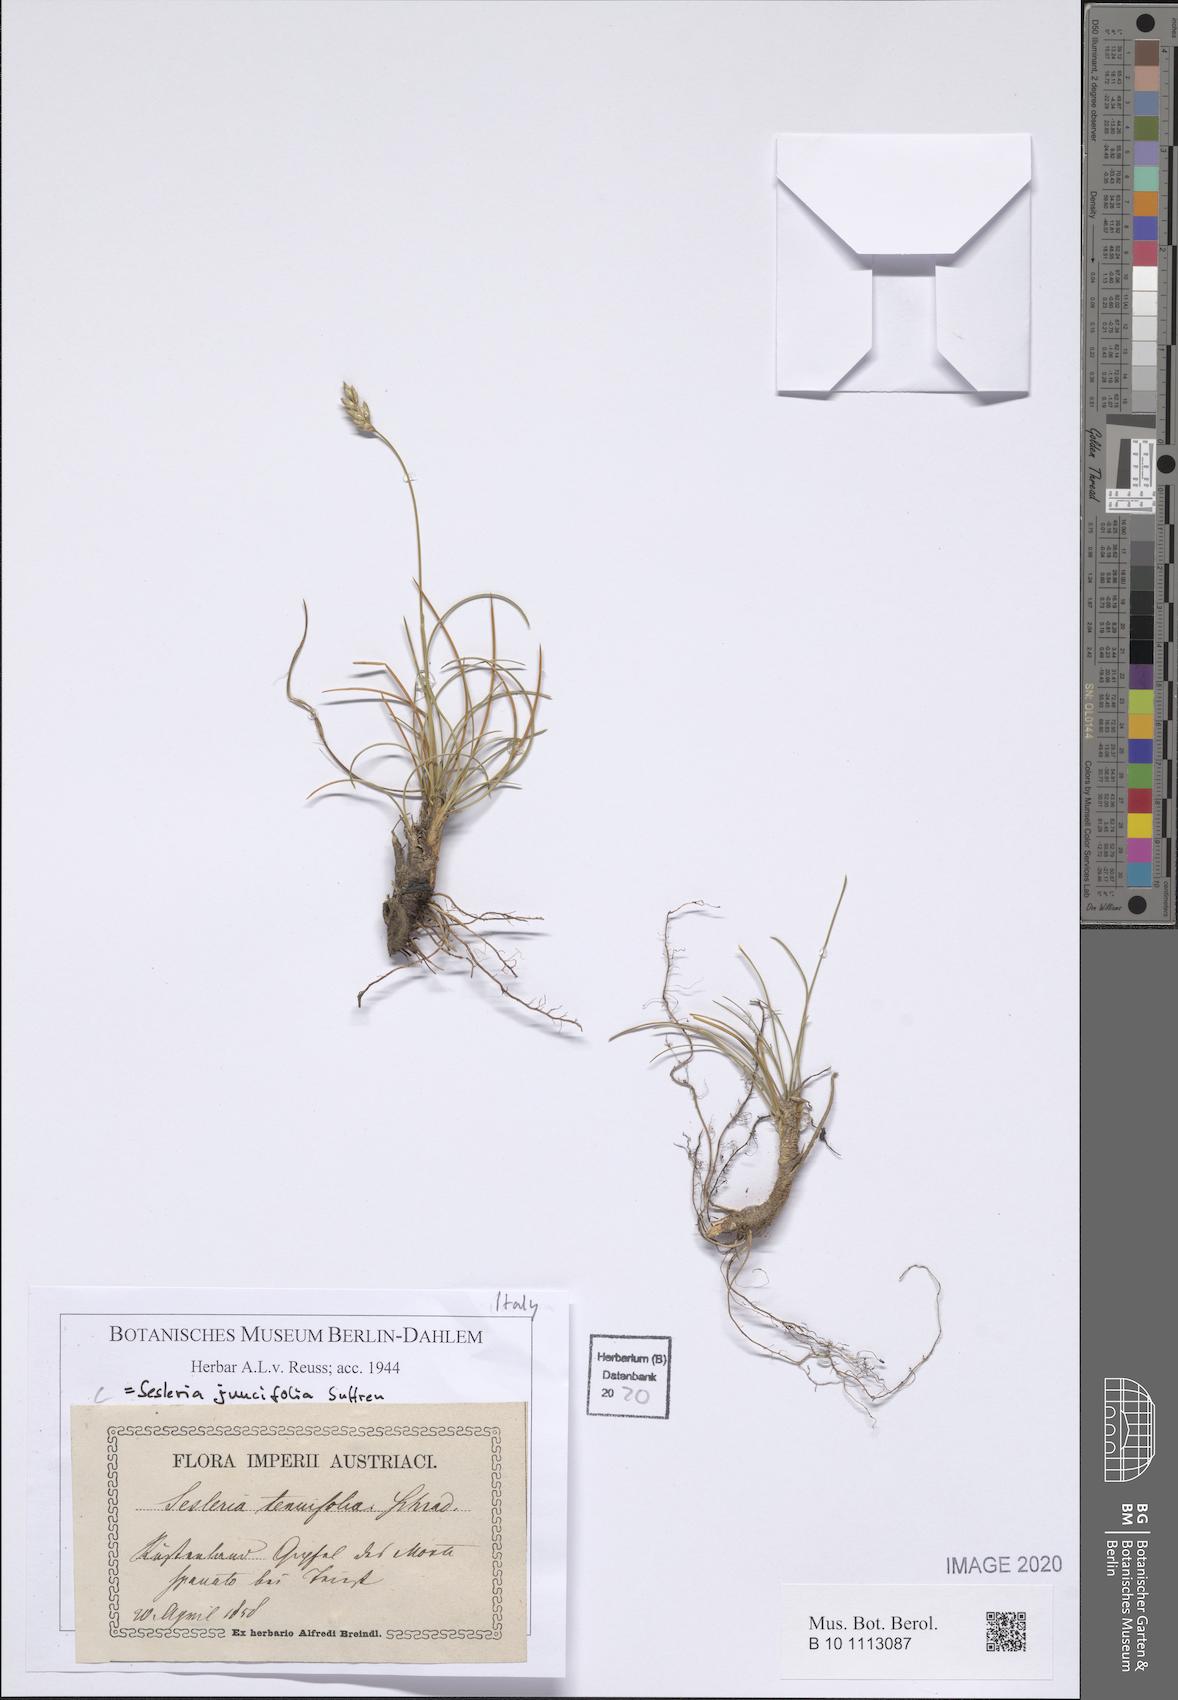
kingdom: Plantae
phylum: Tracheophyta
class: Liliopsida
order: Poales
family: Poaceae
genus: Sesleria
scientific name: Sesleria juncifolia
